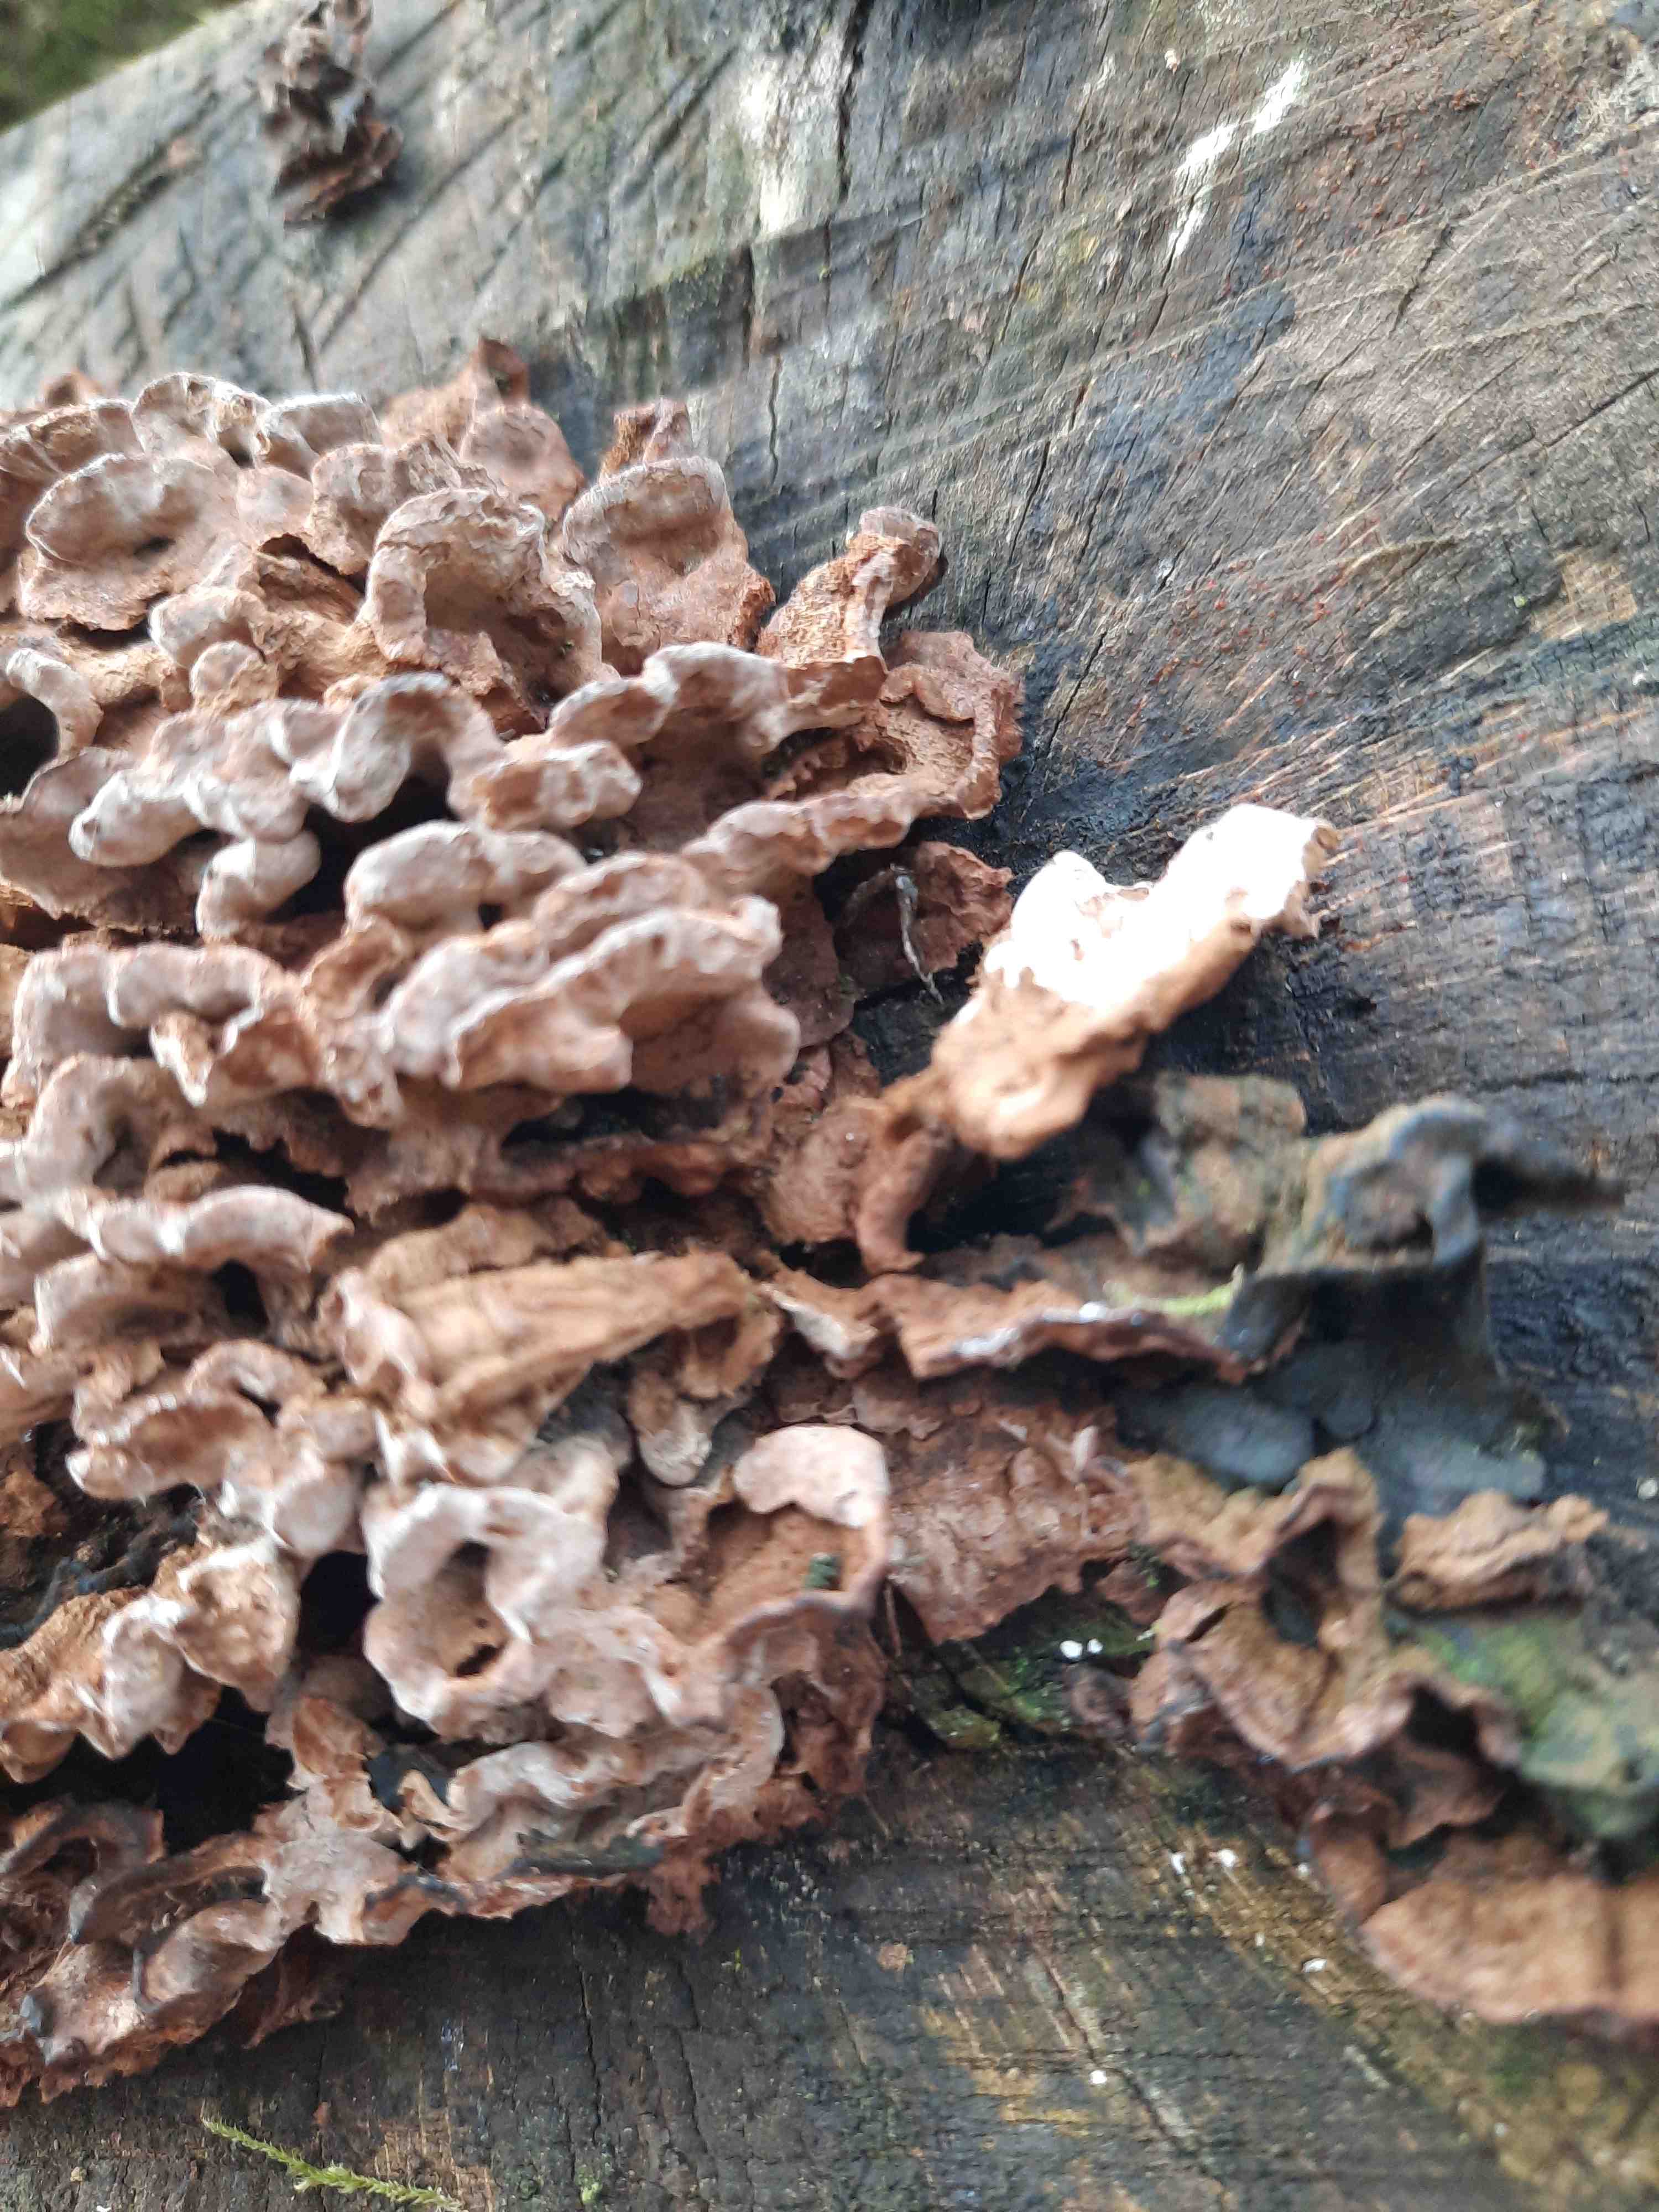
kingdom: Fungi
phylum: Basidiomycota
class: Agaricomycetes
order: Russulales
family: Hericiaceae
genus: Laxitextum
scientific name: Laxitextum bicolor
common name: tvefarvet filtskind
